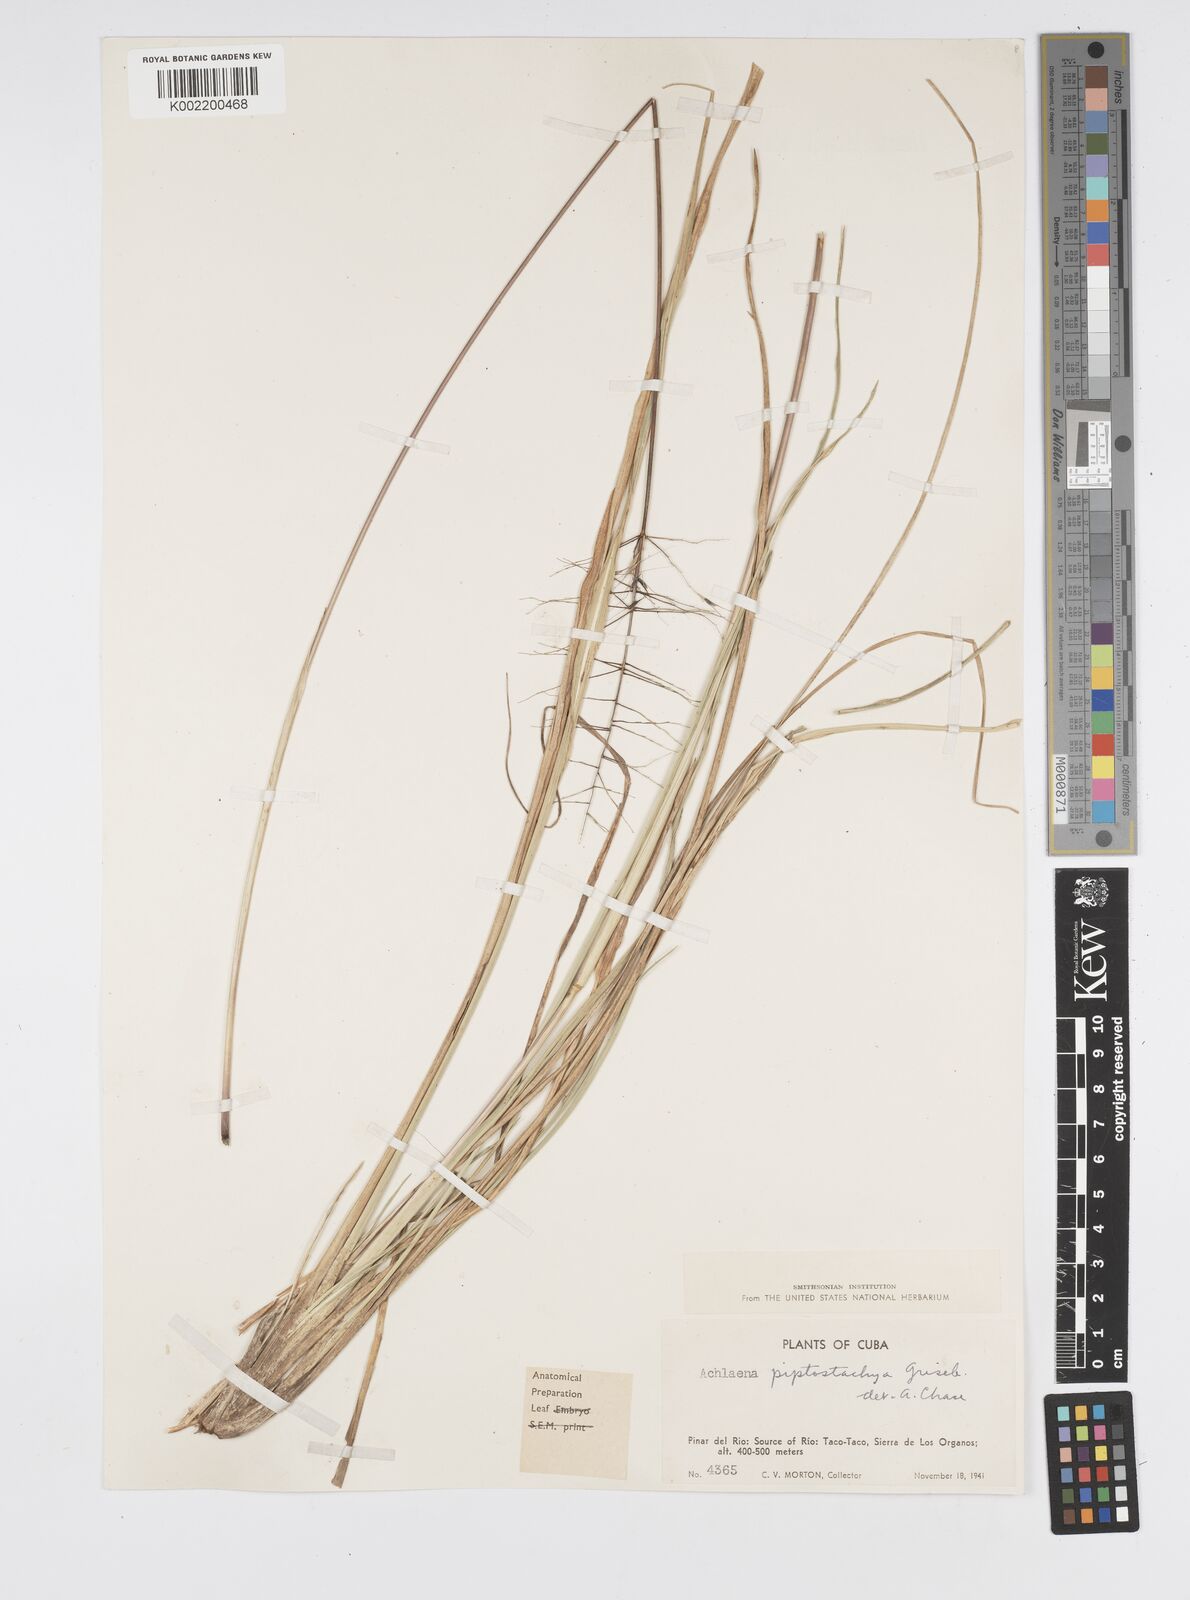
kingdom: Plantae
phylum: Tracheophyta
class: Liliopsida
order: Poales
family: Poaceae
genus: Arthropogon
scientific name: Arthropogon piptostachyus
